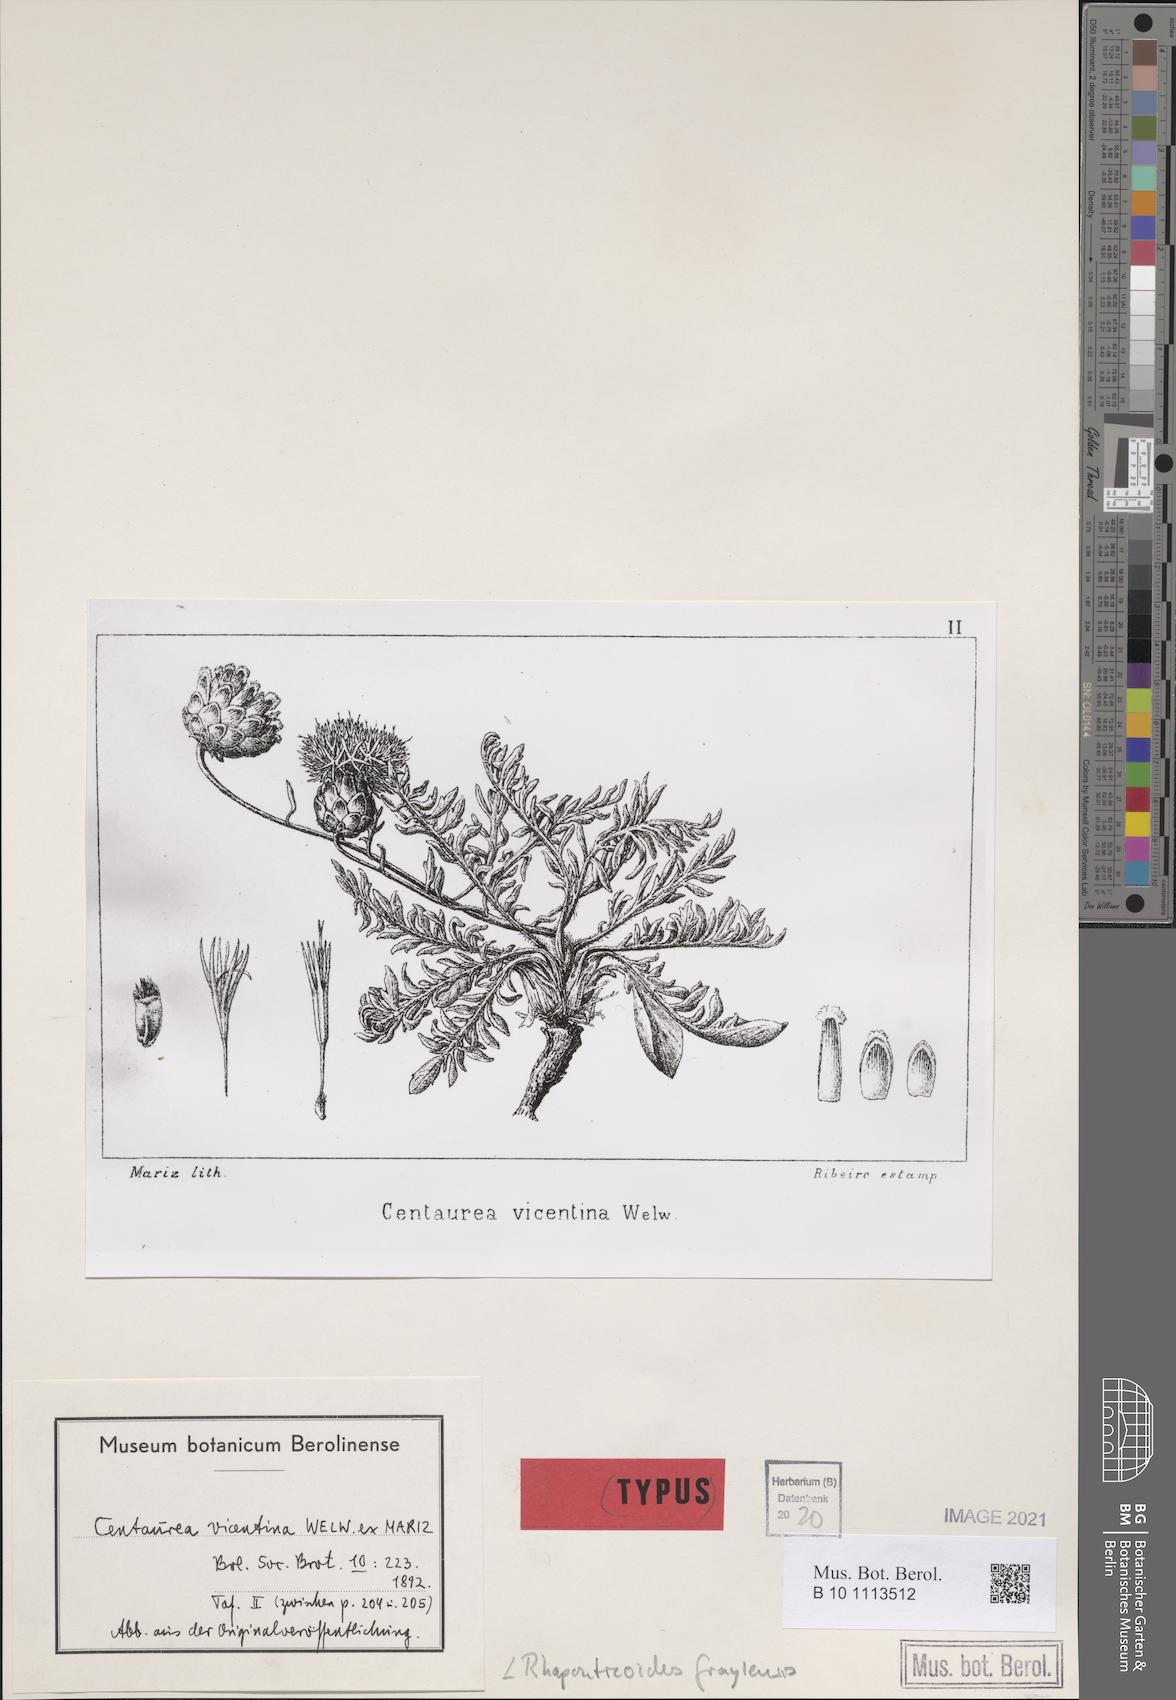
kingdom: Plantae
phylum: Tracheophyta
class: Magnoliopsida
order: Asterales
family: Asteraceae
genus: Rhaponticoides
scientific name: Rhaponticoides fraylensis
